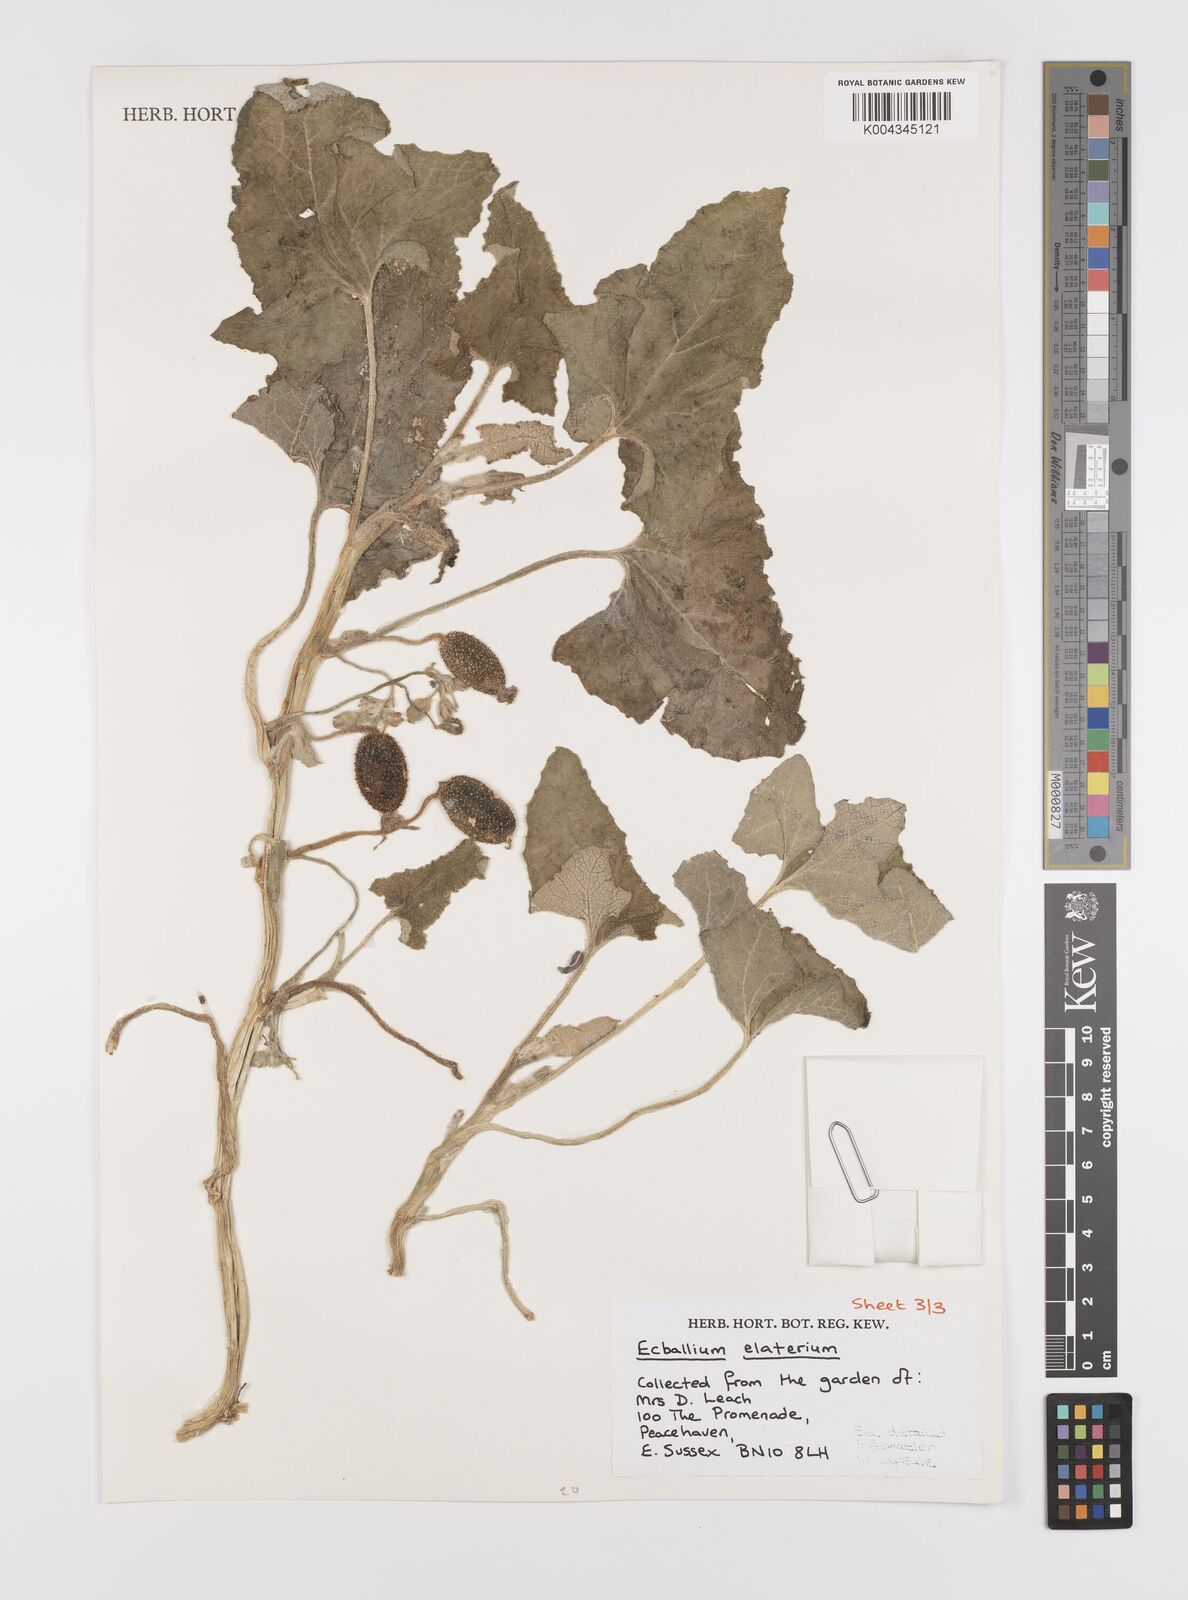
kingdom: Plantae
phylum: Tracheophyta
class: Magnoliopsida
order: Cucurbitales
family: Cucurbitaceae
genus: Ecballium
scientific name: Ecballium elaterium
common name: Squirting cucumber
